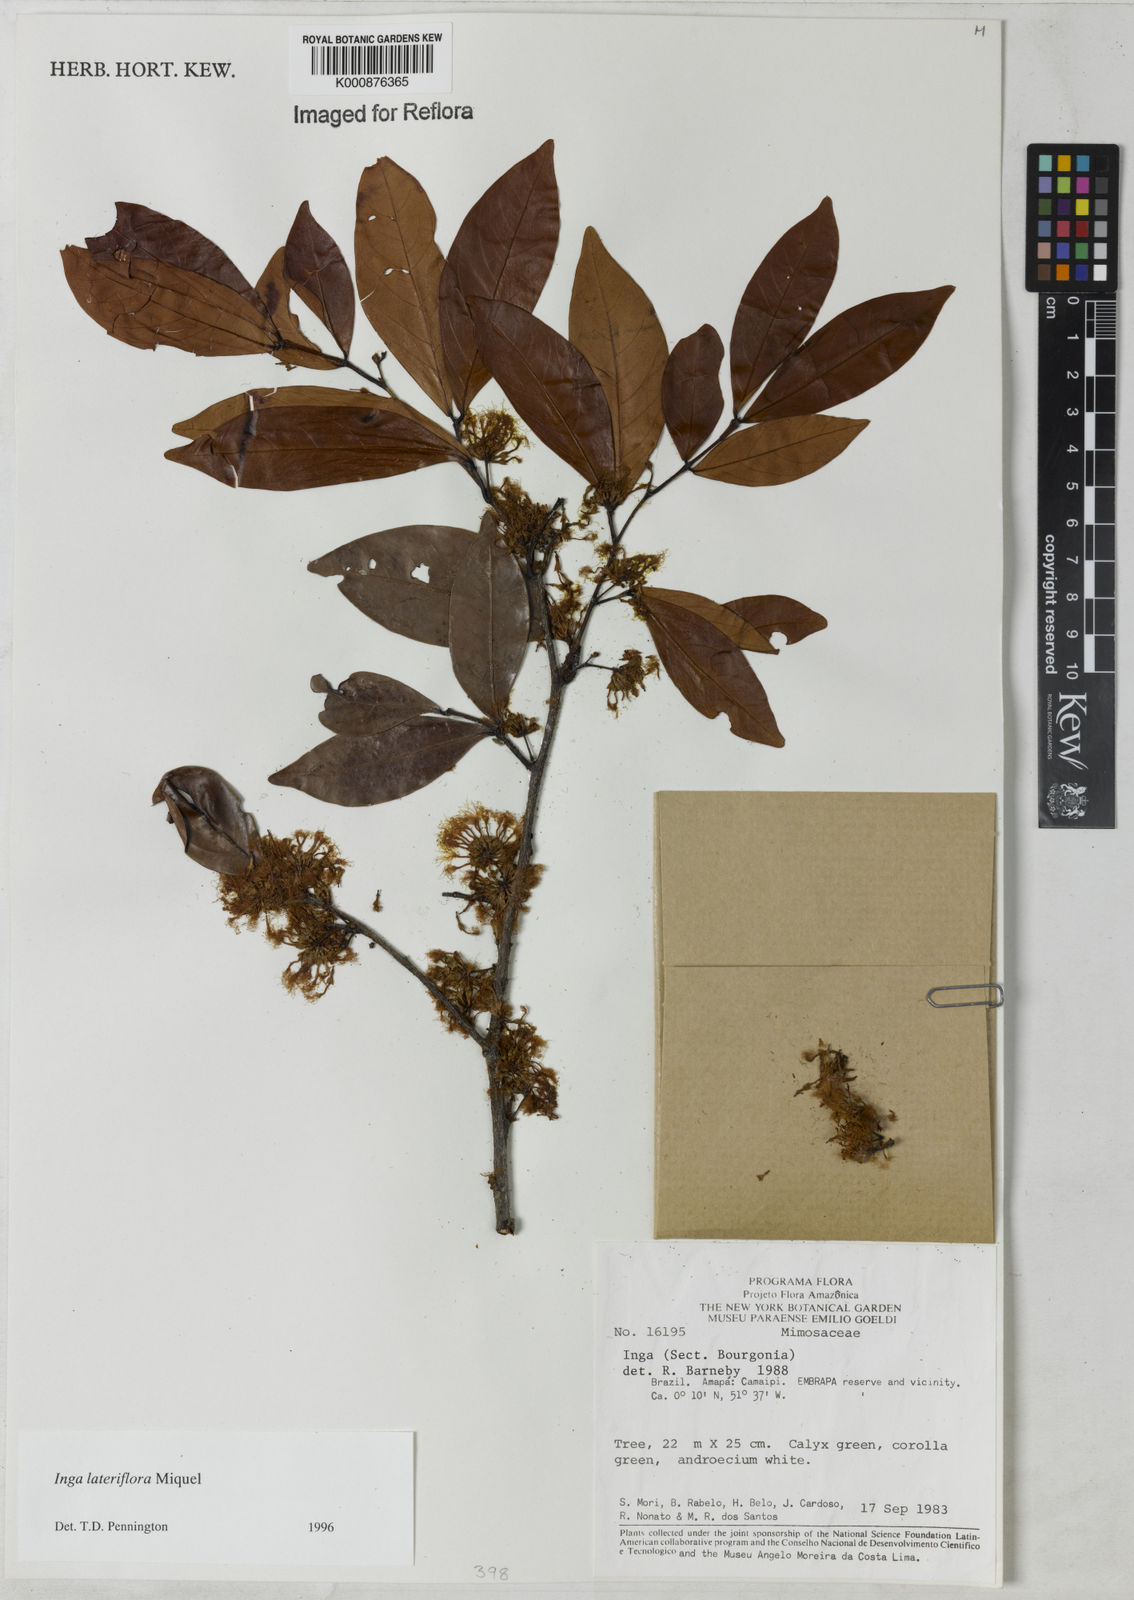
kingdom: Plantae
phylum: Tracheophyta
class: Magnoliopsida
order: Fabales
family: Fabaceae
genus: Inga
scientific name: Inga lateriflora
